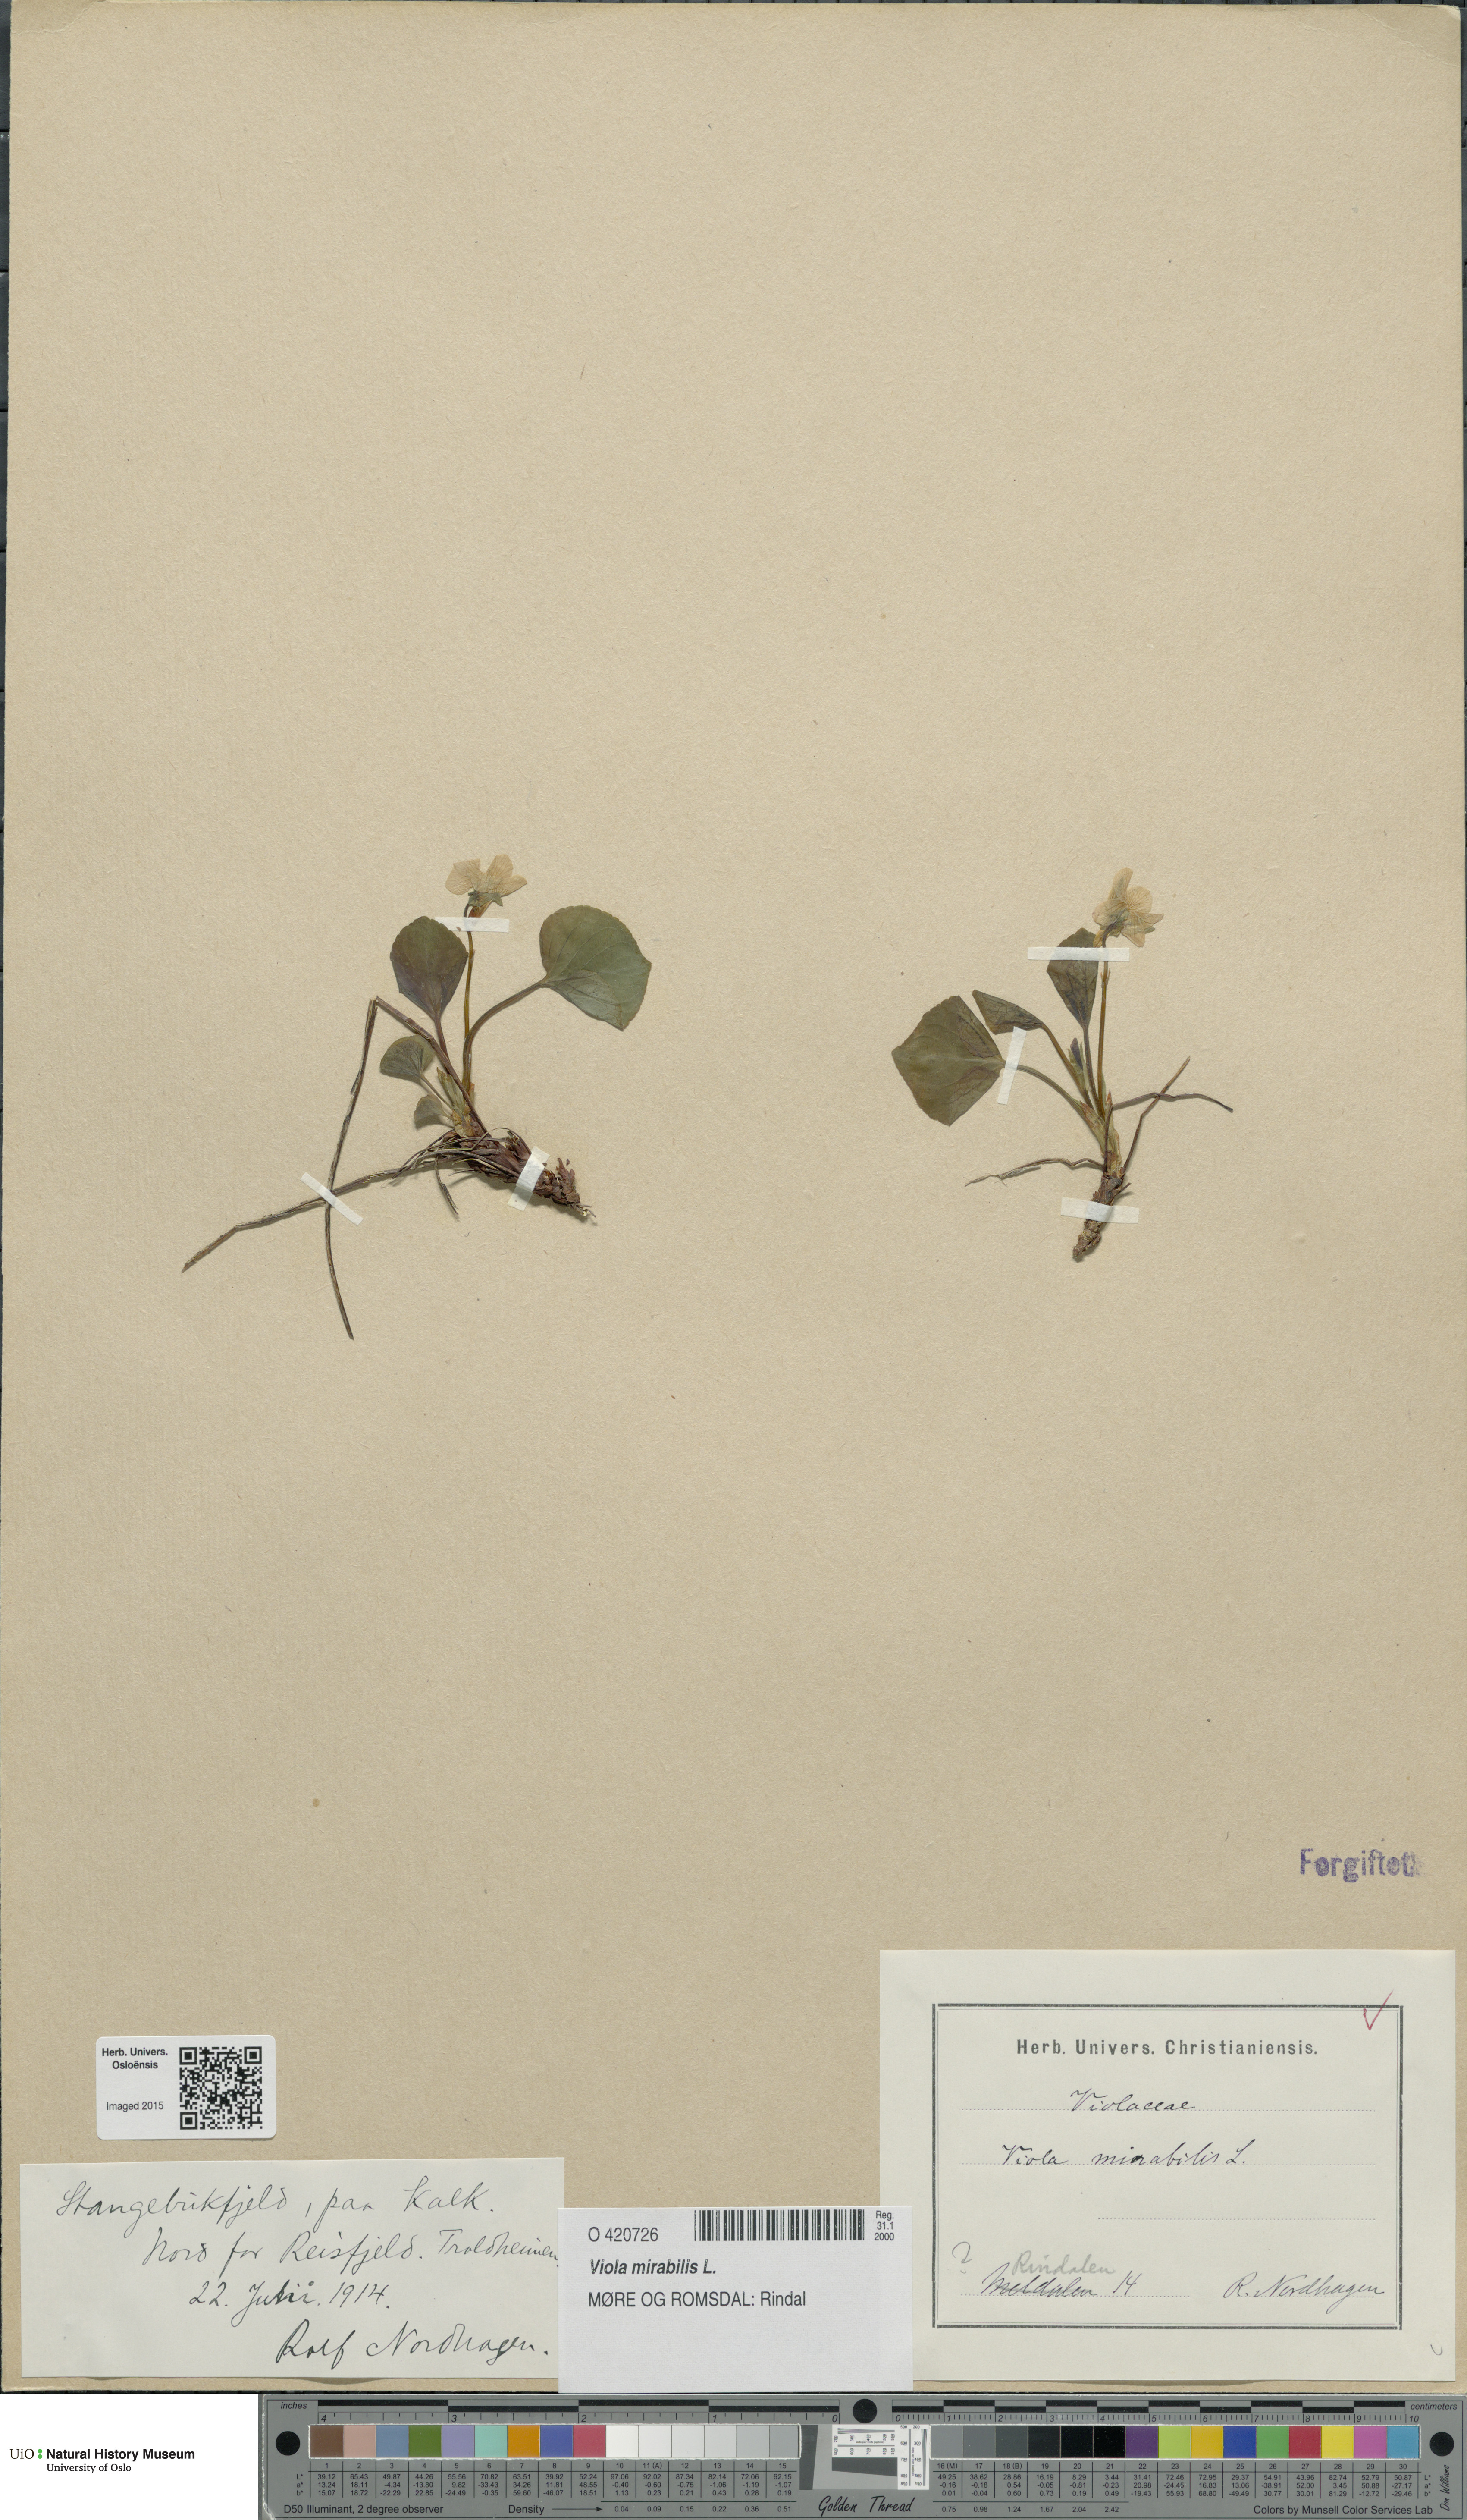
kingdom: Plantae
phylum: Tracheophyta
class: Magnoliopsida
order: Malpighiales
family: Violaceae
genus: Viola
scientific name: Viola mirabilis
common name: Wonder violet
